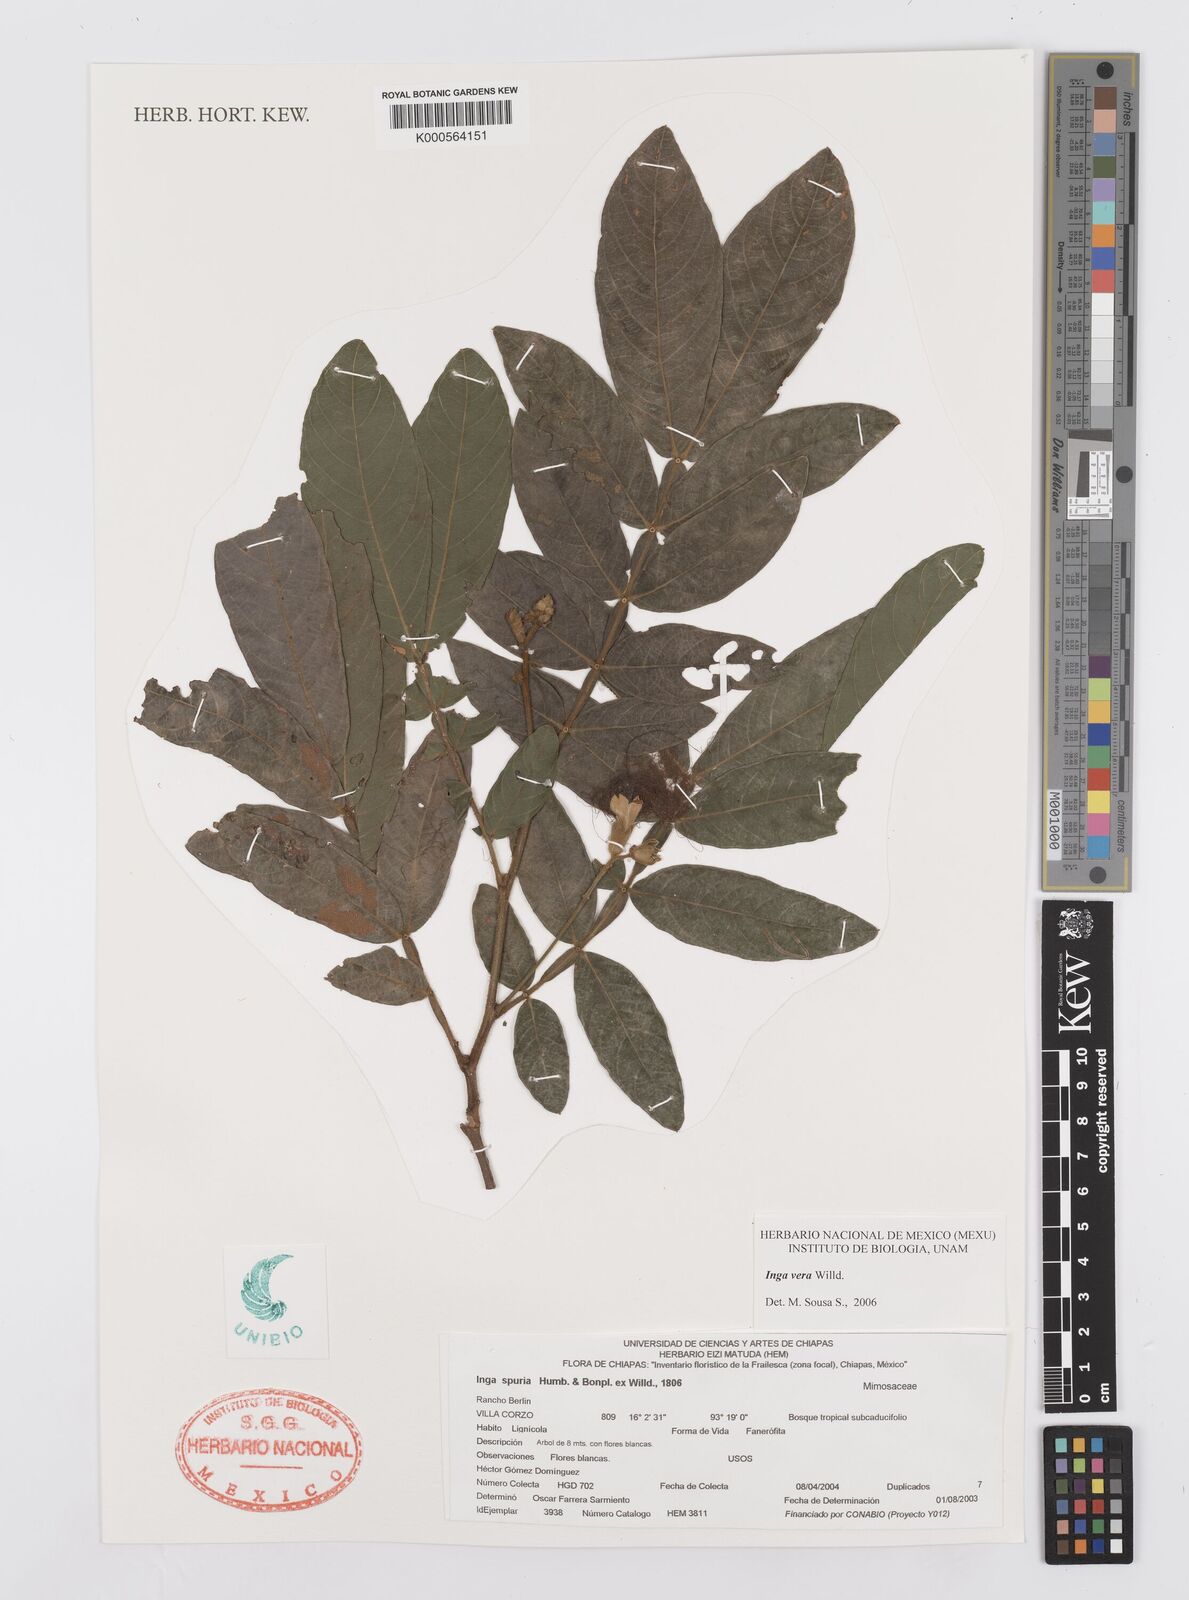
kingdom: Plantae
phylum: Tracheophyta
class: Magnoliopsida
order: Fabales
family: Fabaceae
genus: Inga
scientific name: Inga vera
